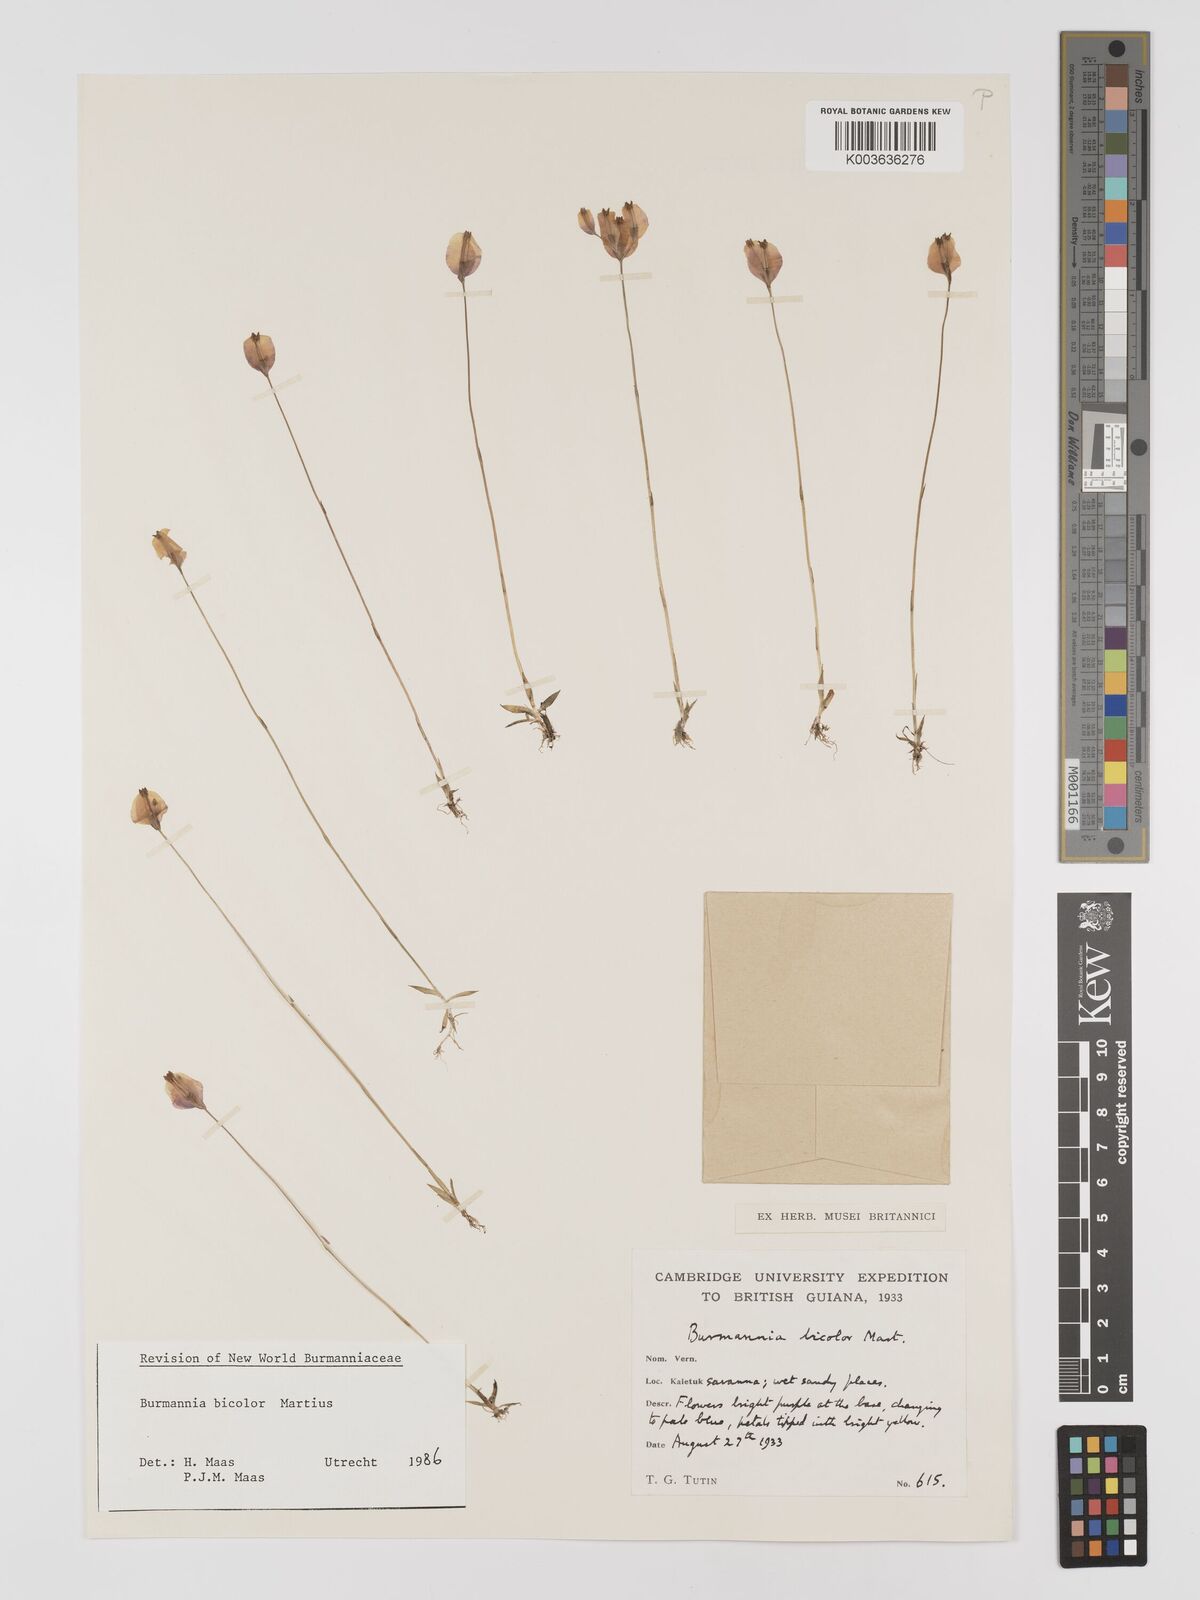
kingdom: Plantae
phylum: Tracheophyta
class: Liliopsida
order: Dioscoreales
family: Burmanniaceae
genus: Burmannia
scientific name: Burmannia bicolor
